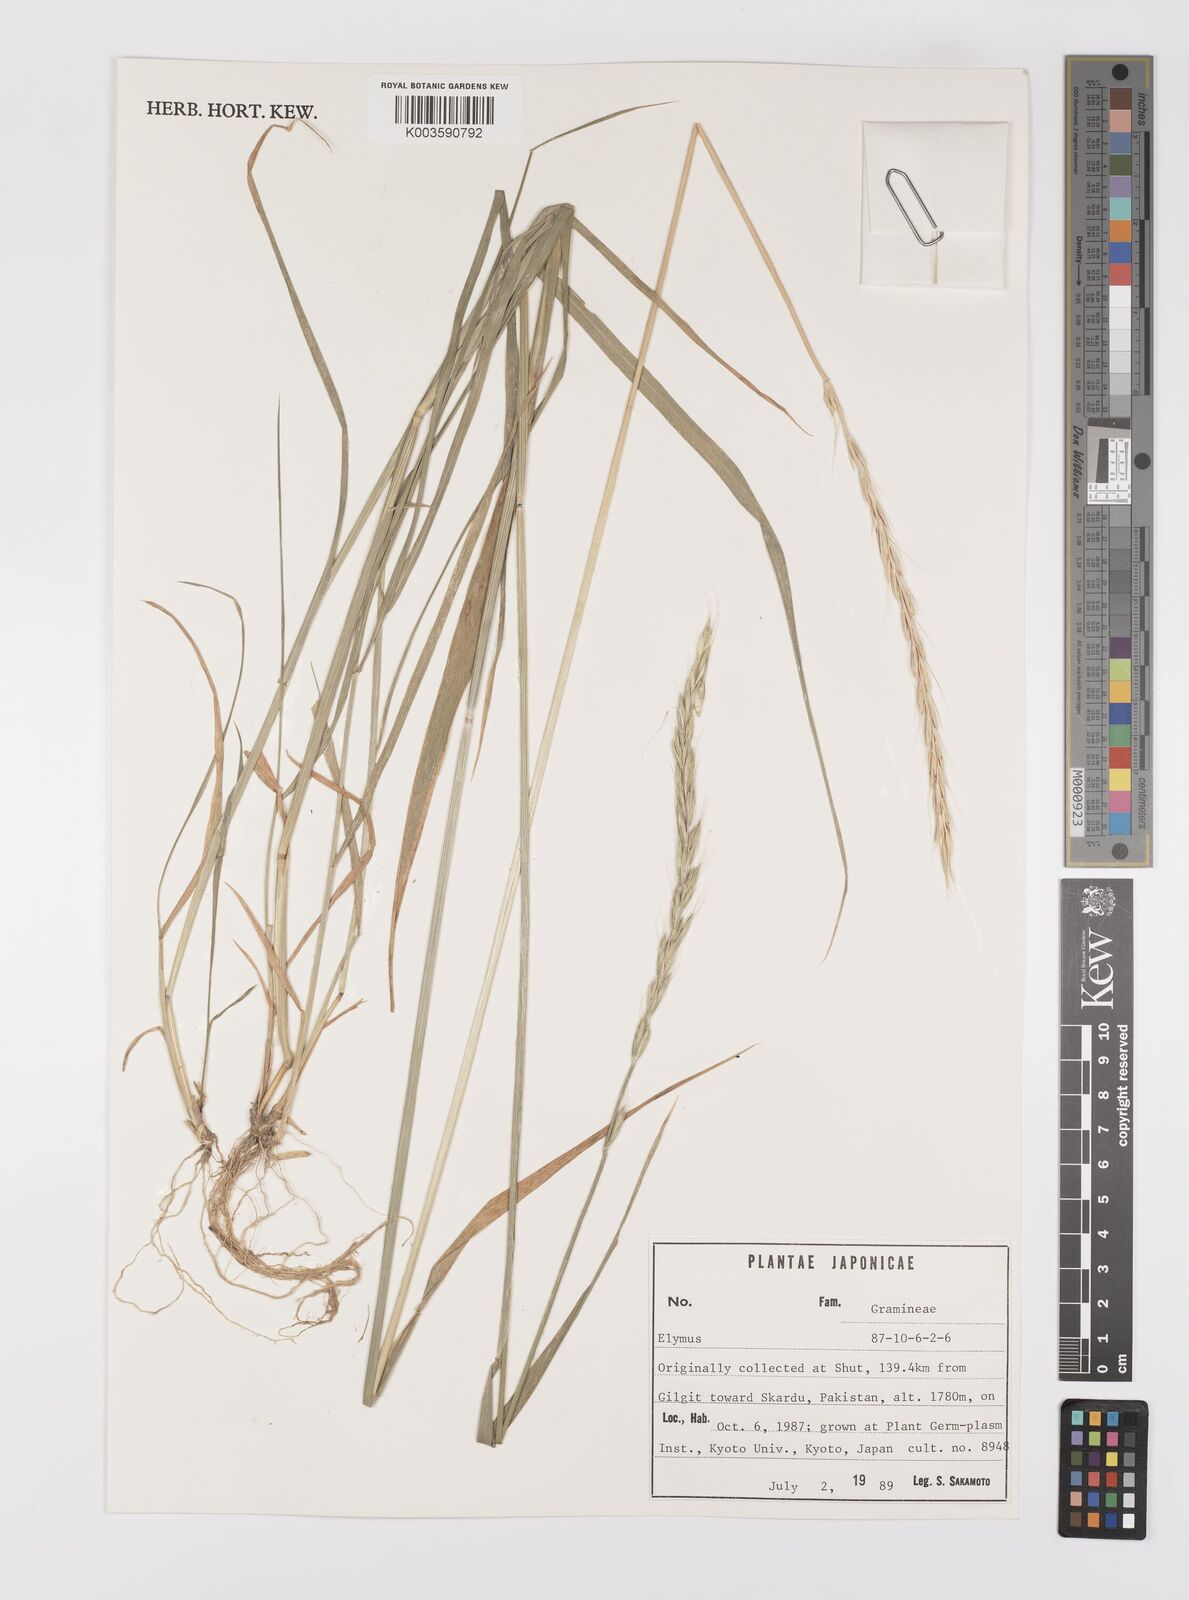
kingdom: Plantae
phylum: Tracheophyta
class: Liliopsida
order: Poales
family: Poaceae
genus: Elymus
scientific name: Elymus
